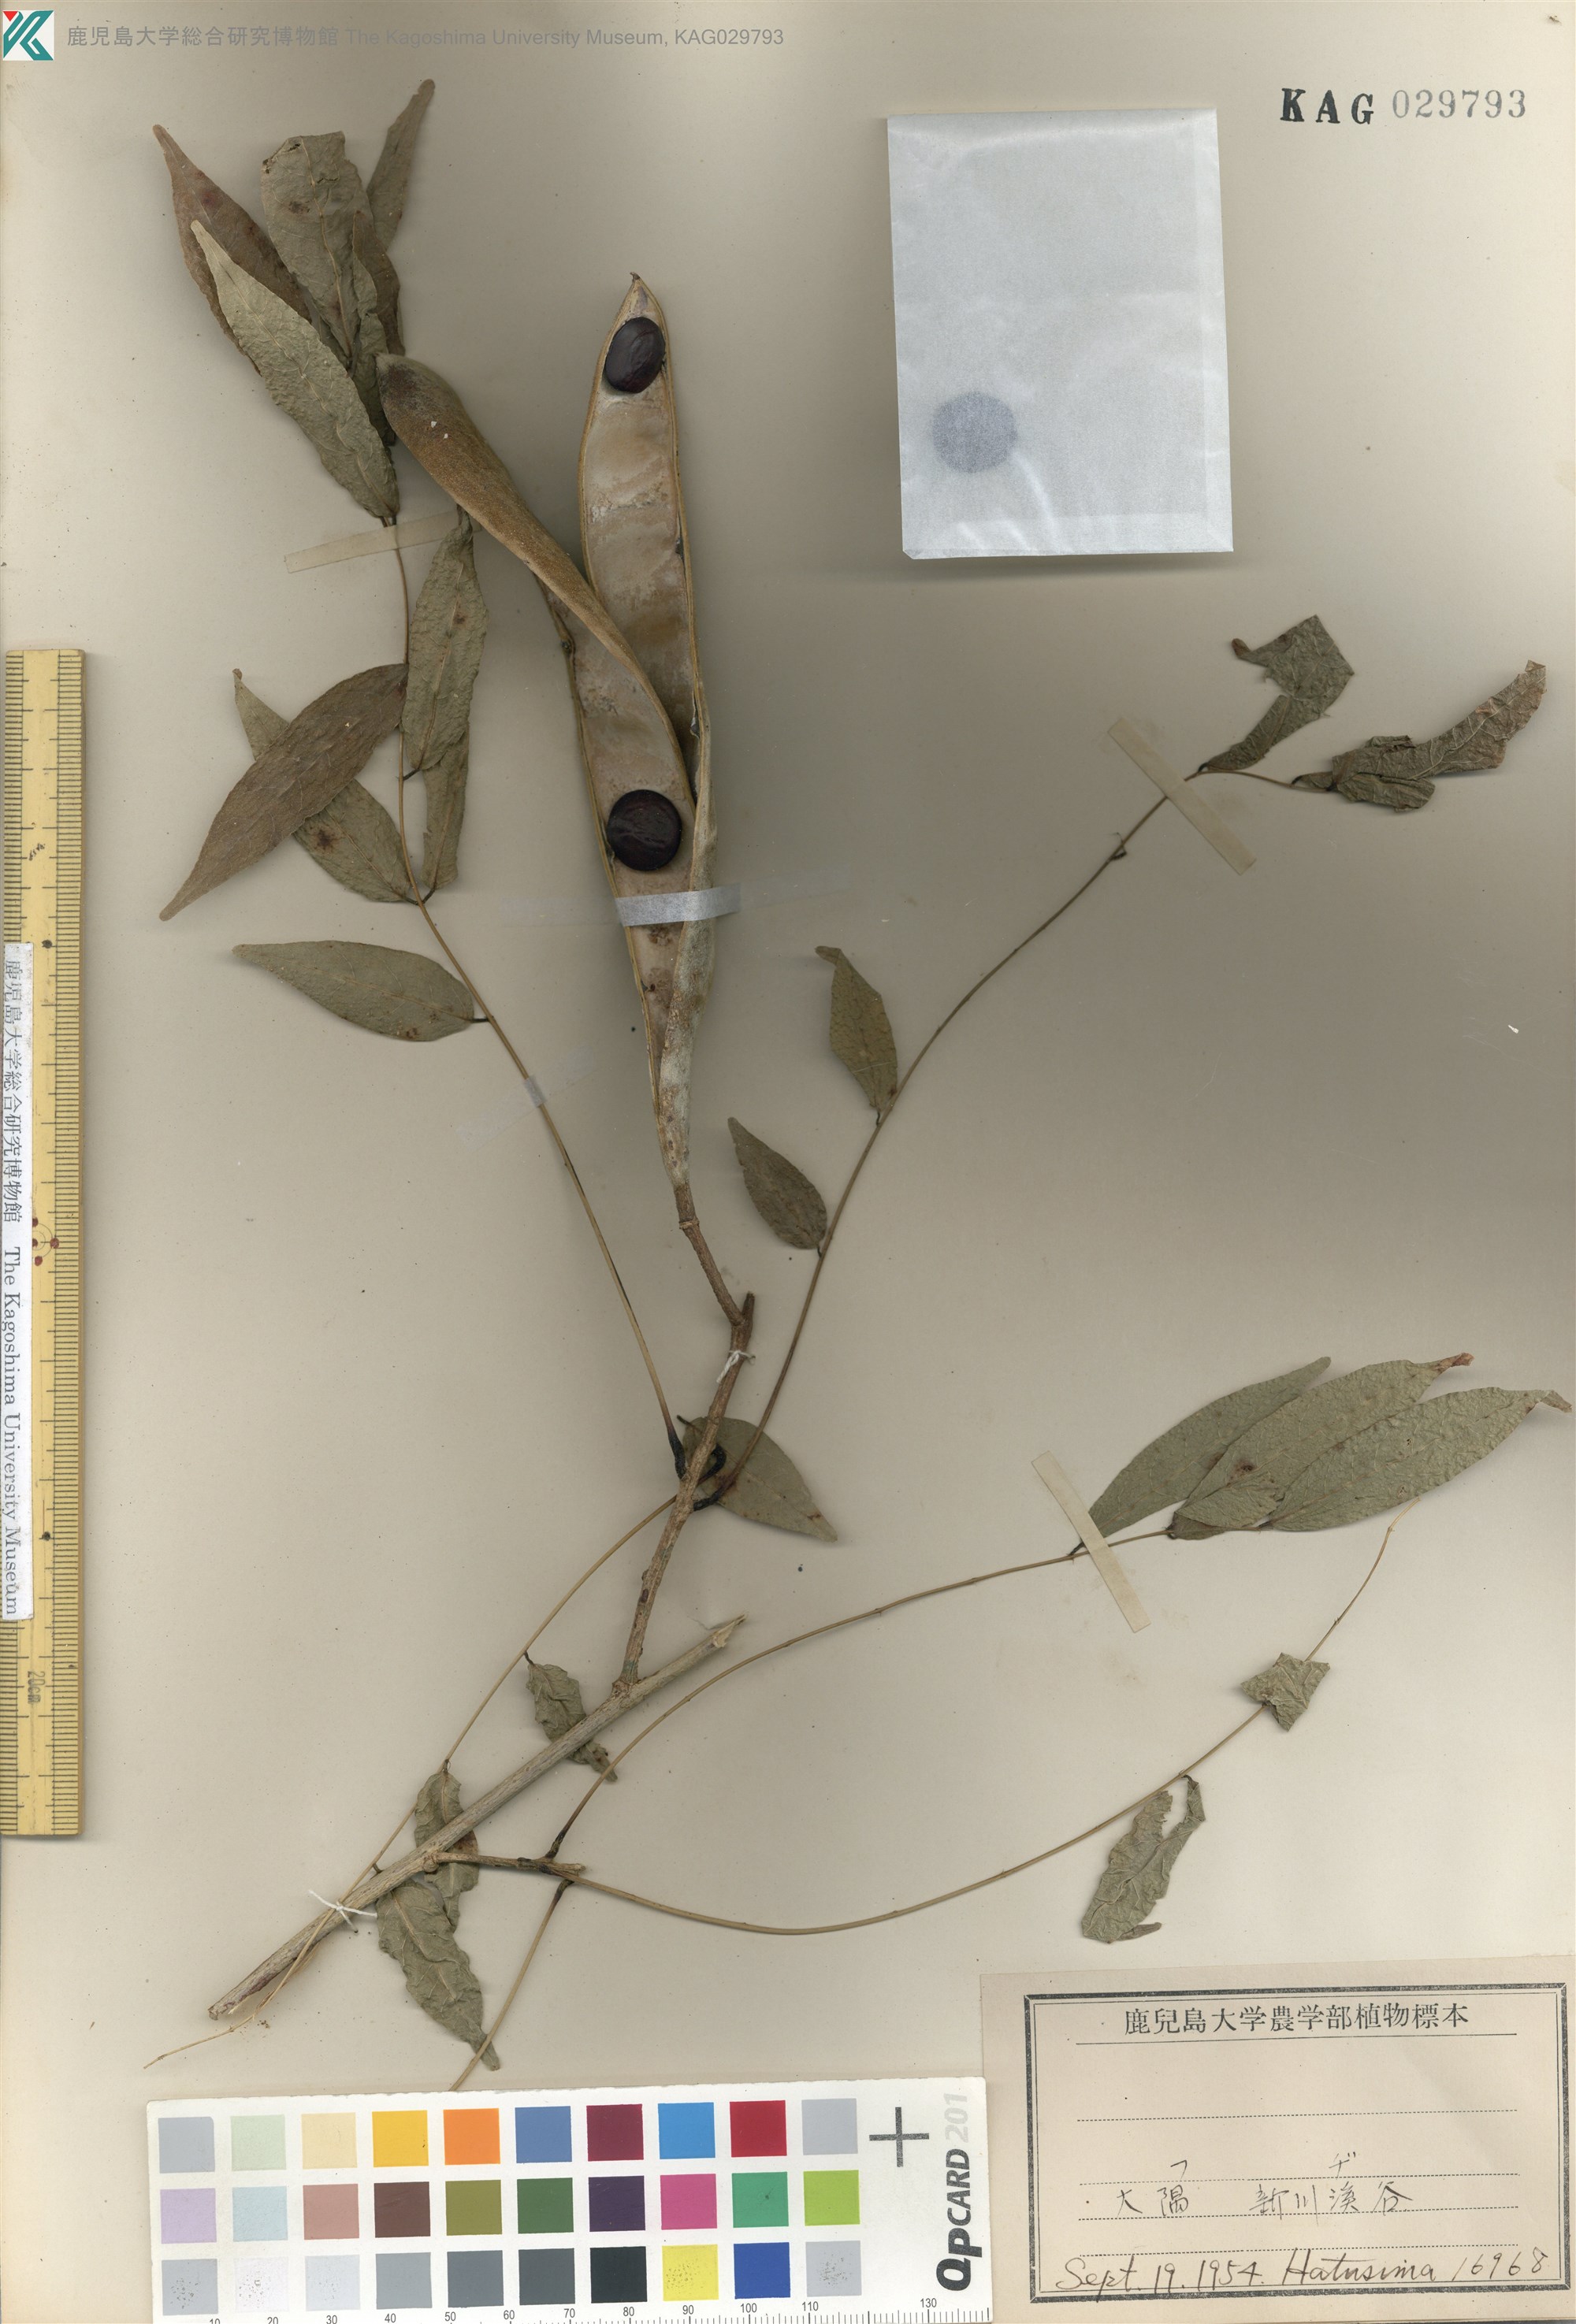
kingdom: Plantae
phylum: Tracheophyta
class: Magnoliopsida
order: Fabales
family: Fabaceae
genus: Wisteria
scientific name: Wisteria floribunda
